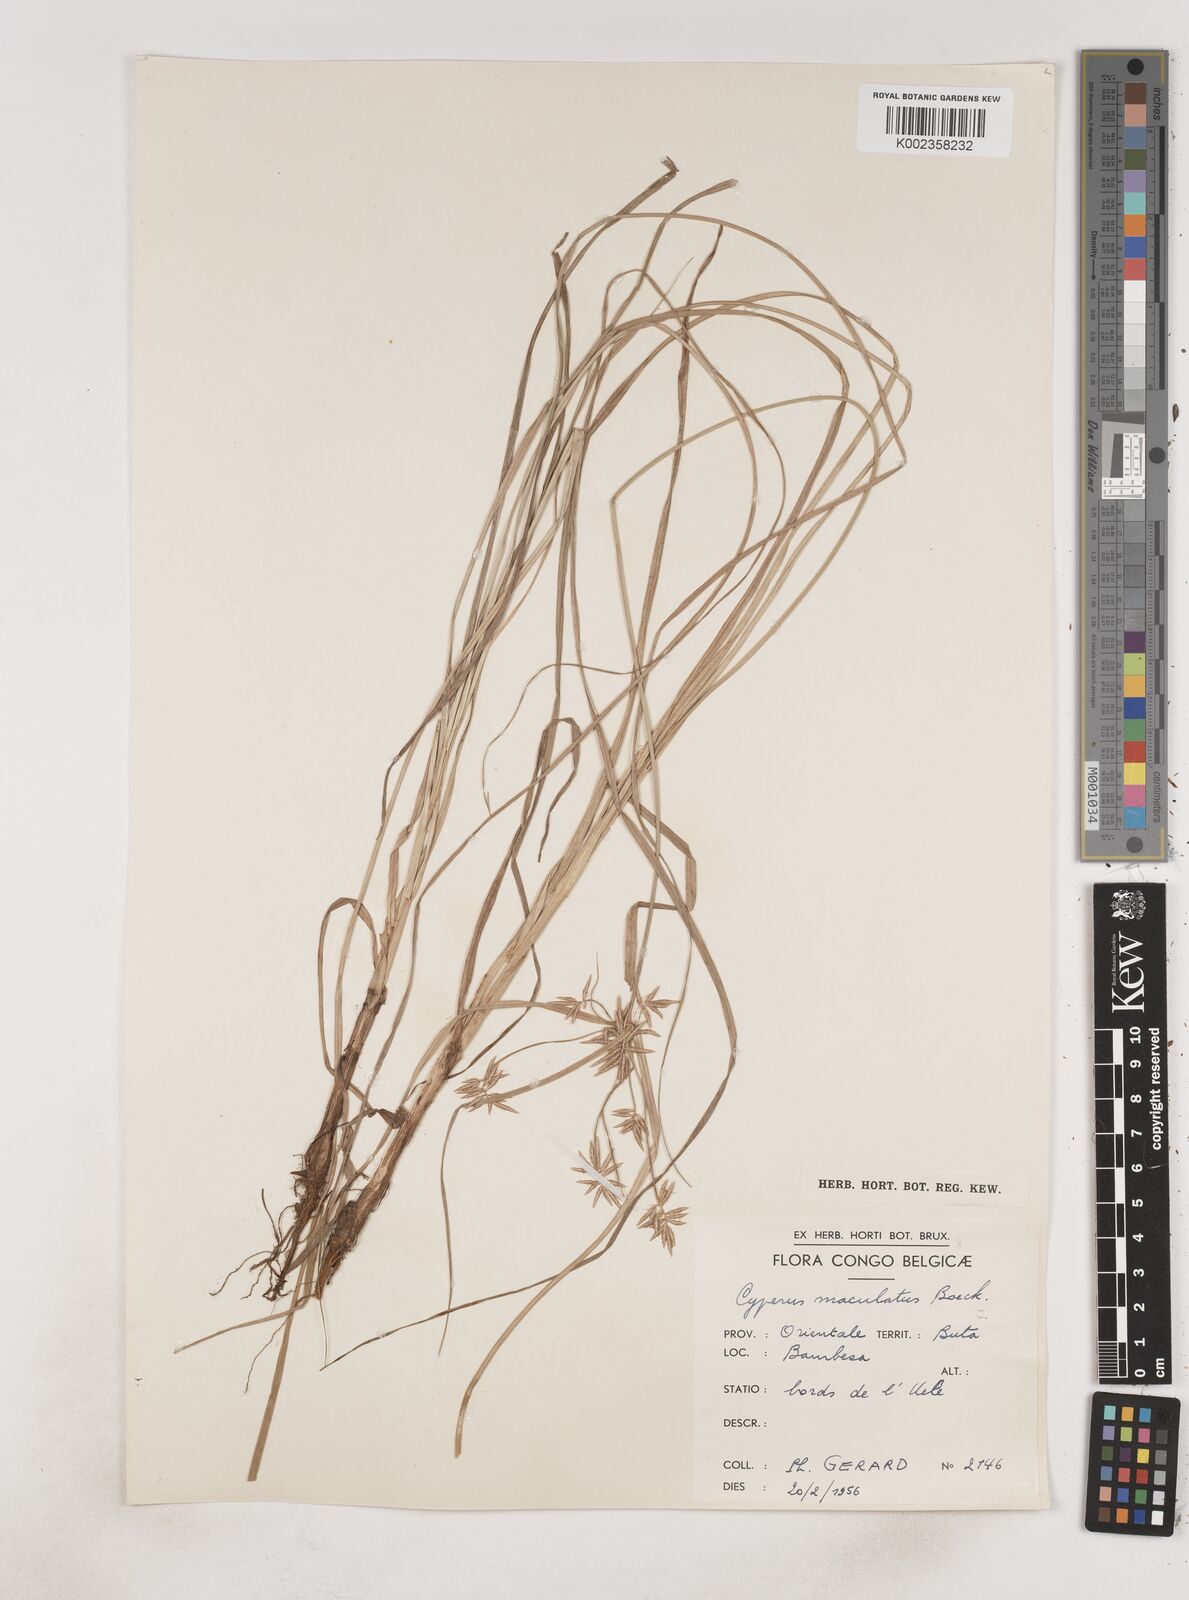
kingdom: Plantae
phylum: Tracheophyta
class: Liliopsida
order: Poales
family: Cyperaceae
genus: Cyperus
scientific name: Cyperus maculatus
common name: Maculated sedge
